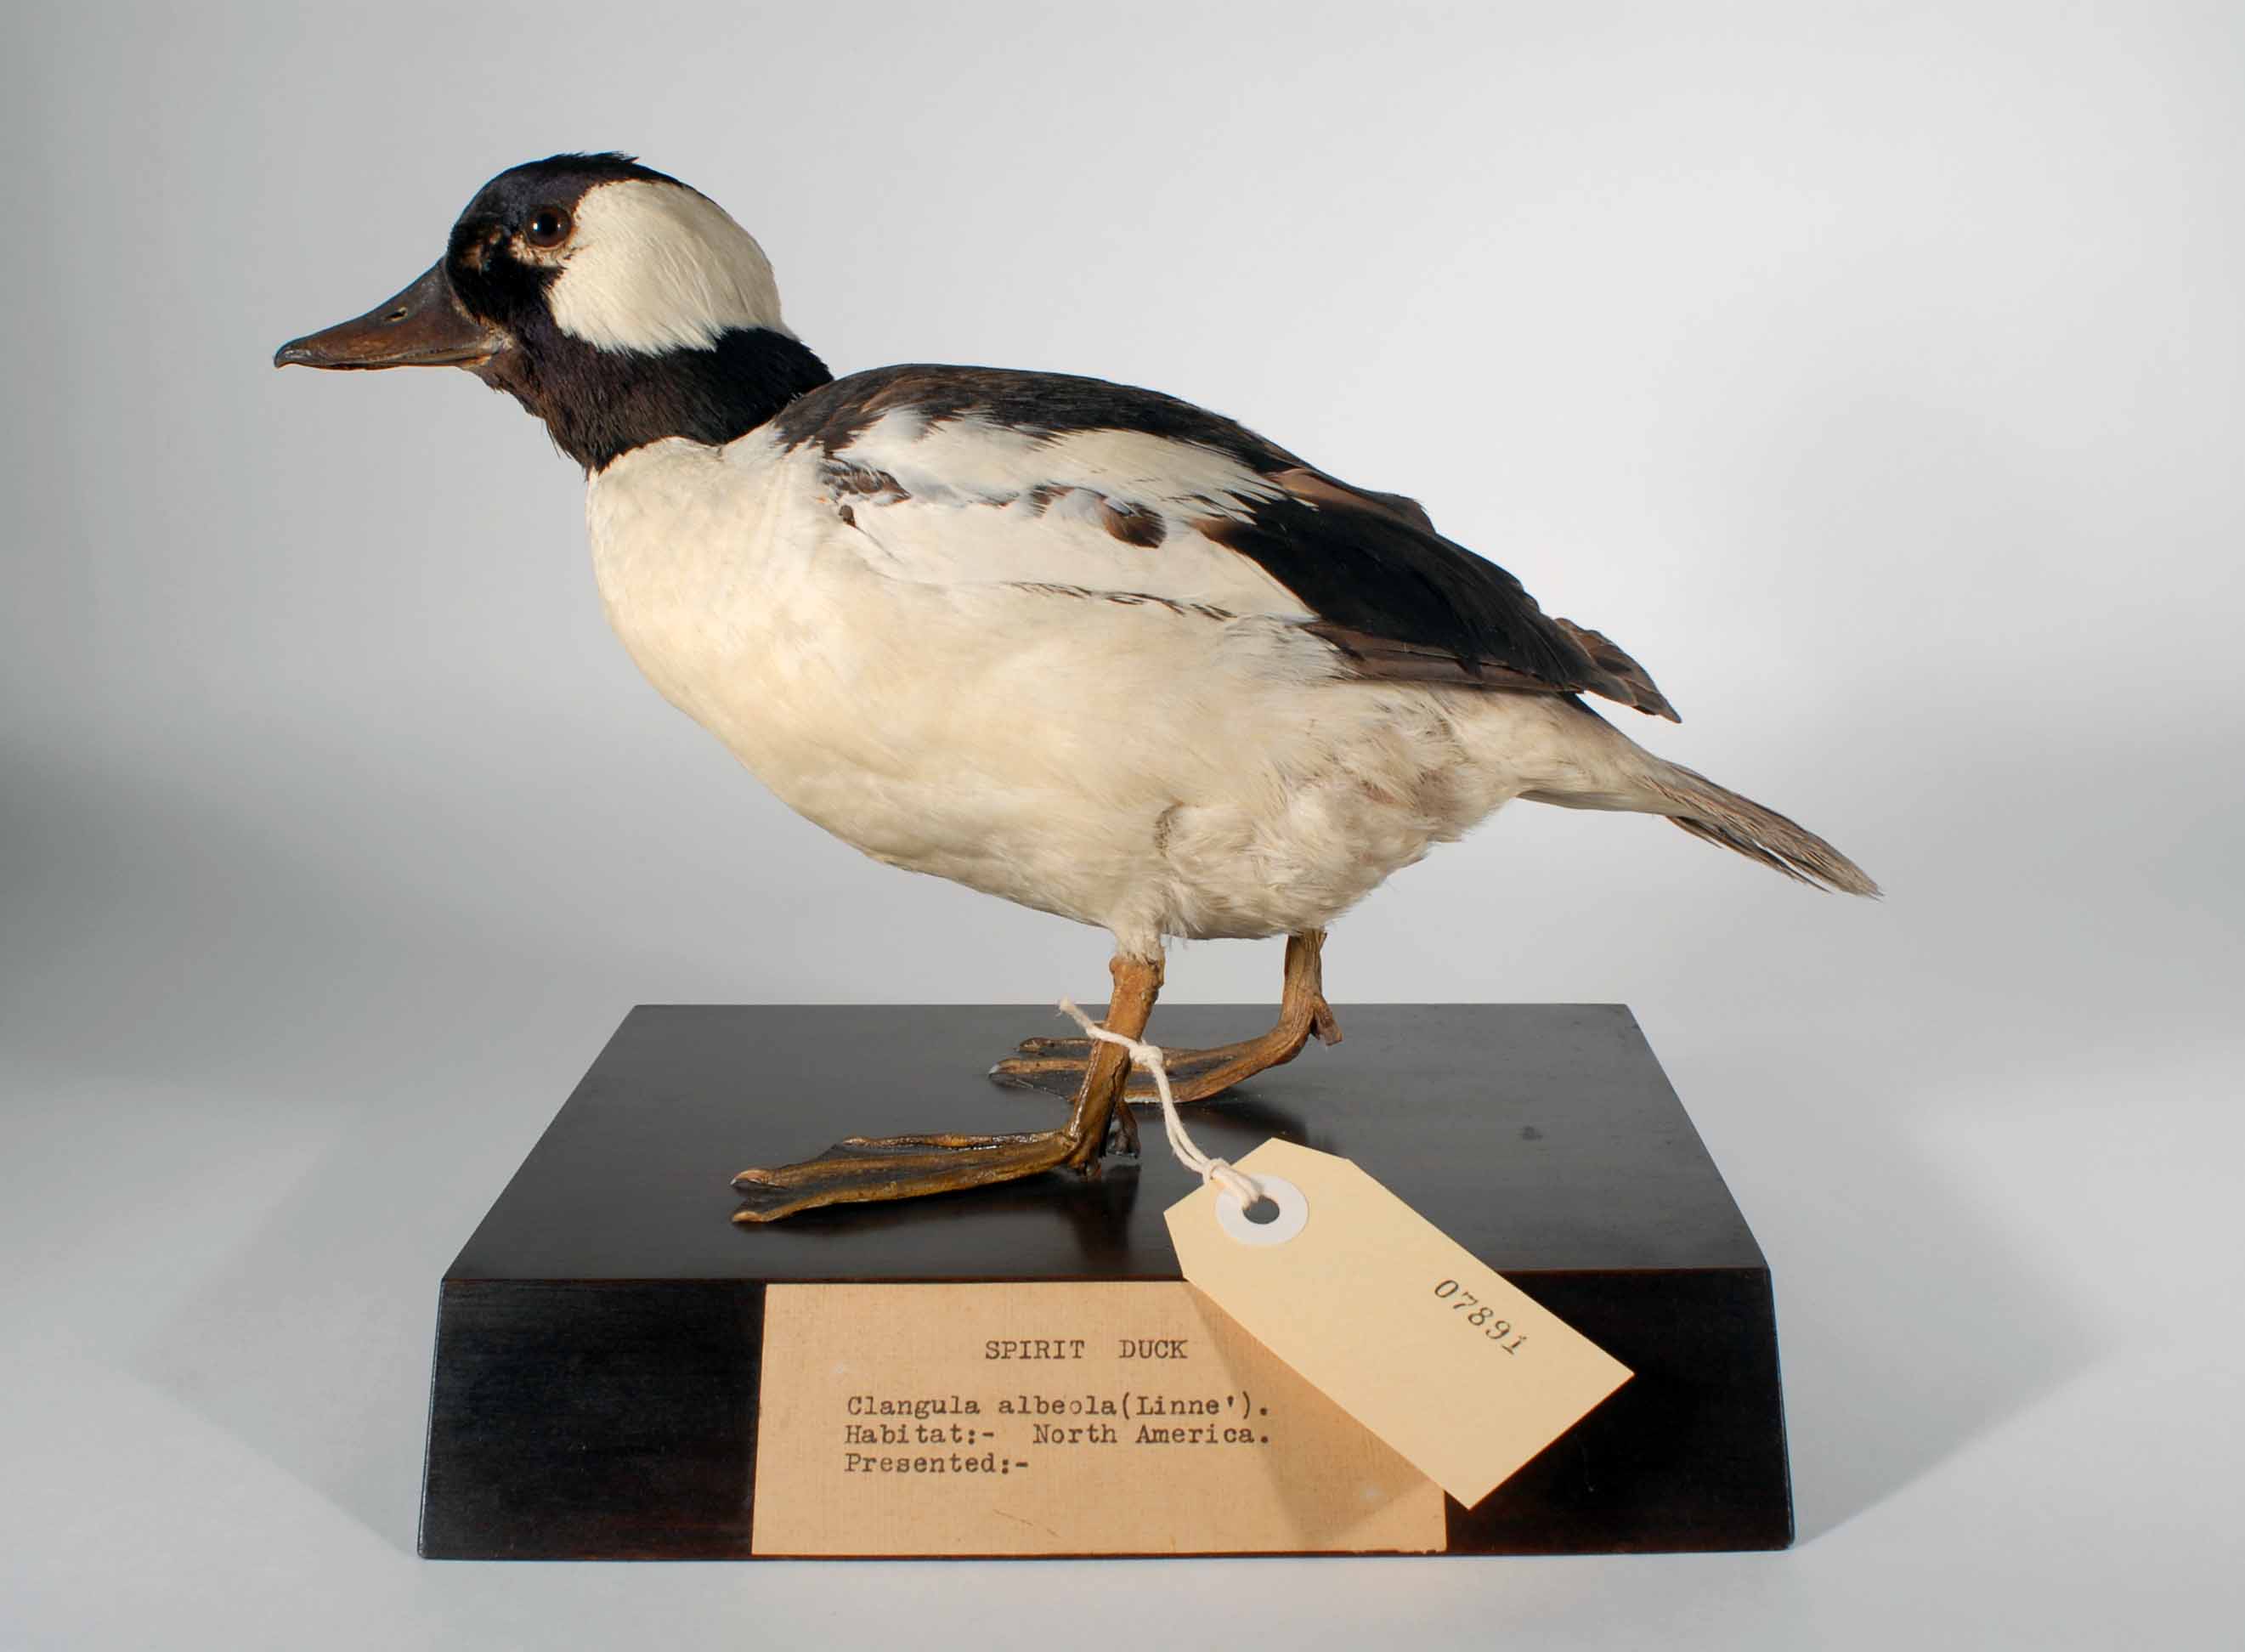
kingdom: Animalia
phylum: Chordata
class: Aves
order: Anseriformes
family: Anatidae
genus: Bucephala
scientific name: Bucephala albeola
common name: Bufflehead
